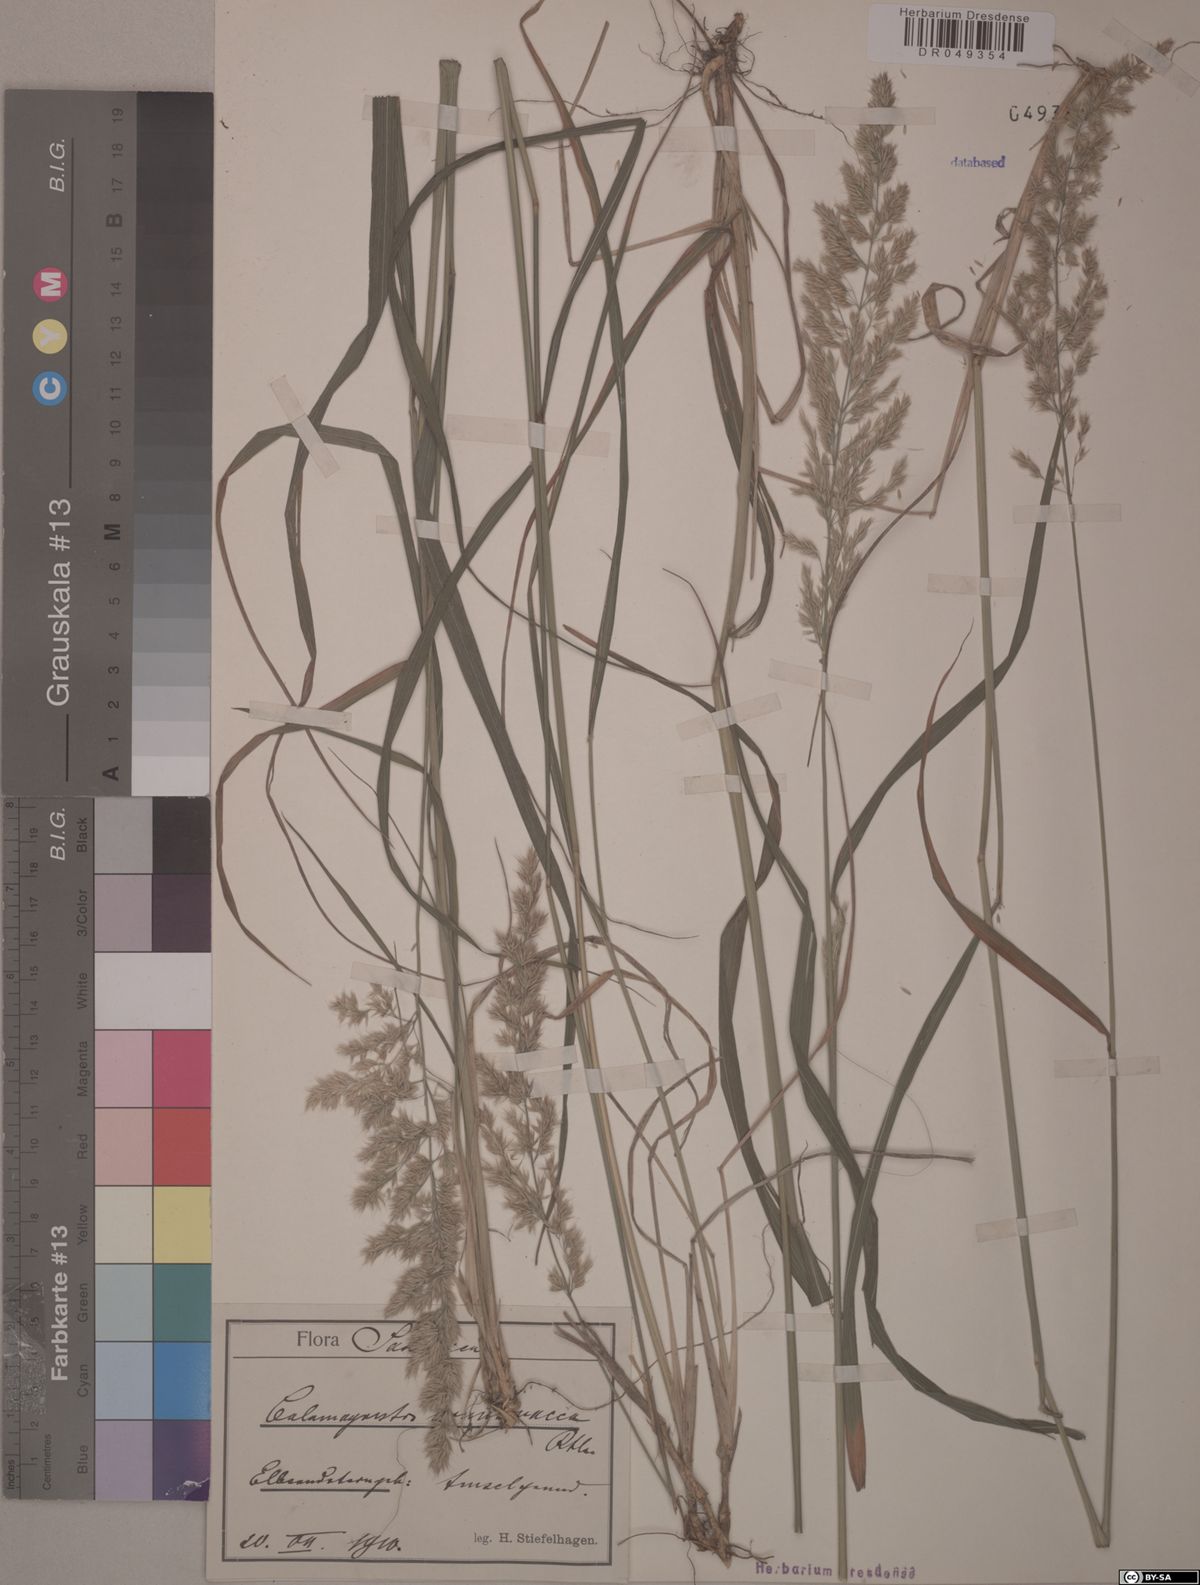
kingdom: Plantae
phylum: Tracheophyta
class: Liliopsida
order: Poales
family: Poaceae
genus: Calamagrostis
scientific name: Calamagrostis arundinacea
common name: Metskastik
